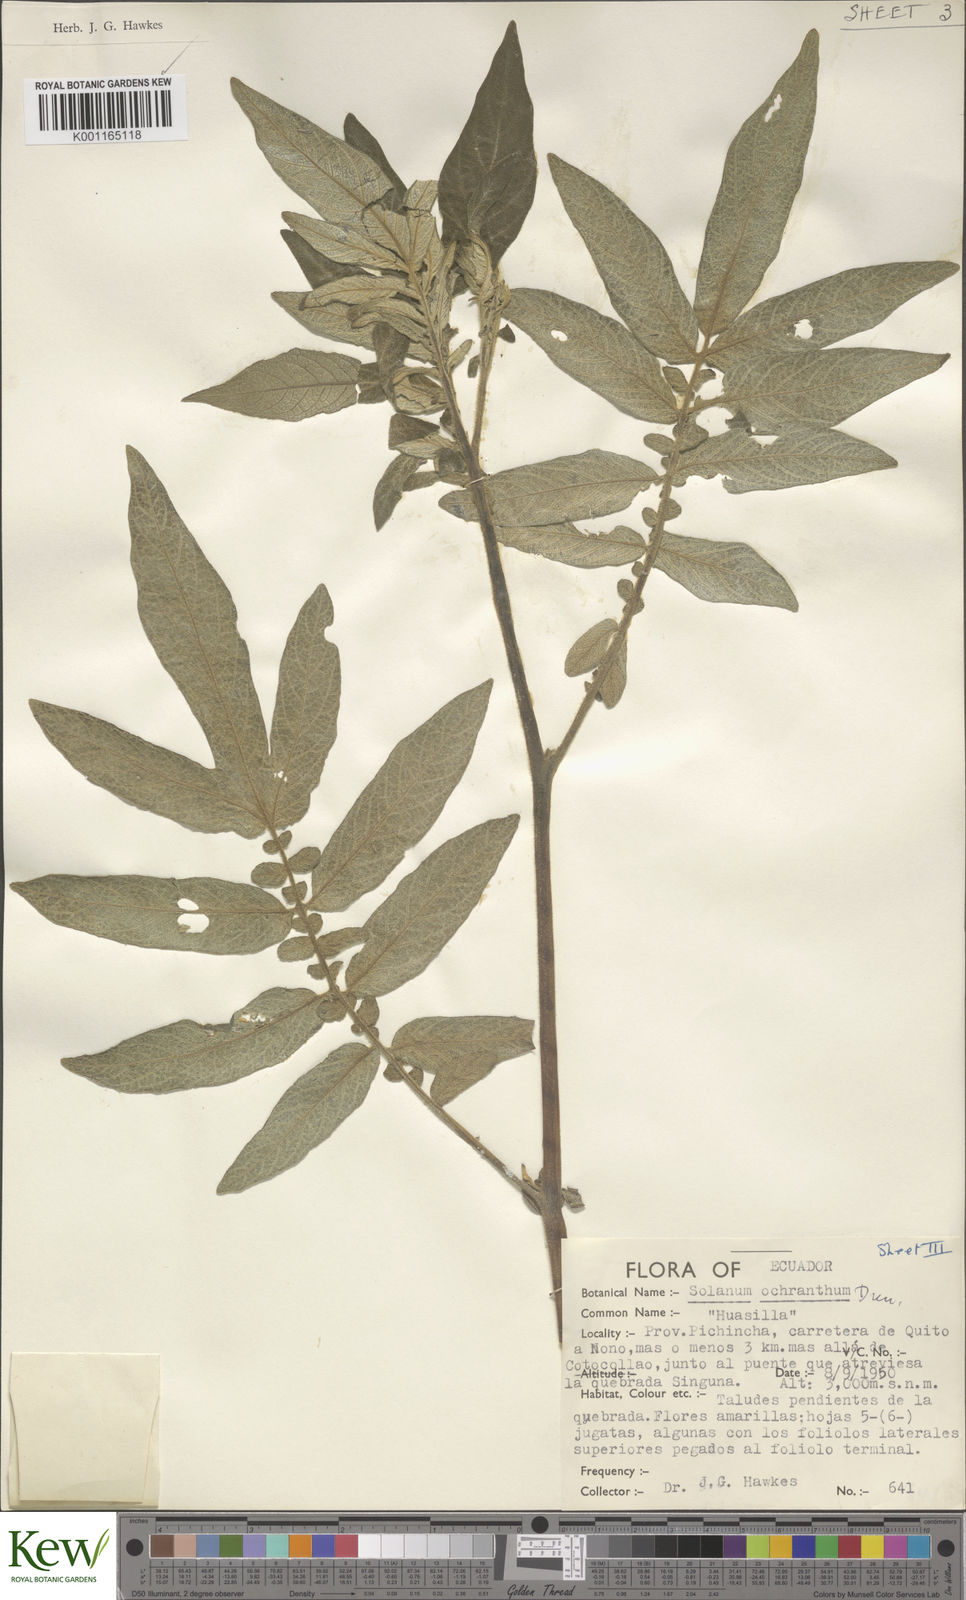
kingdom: Plantae
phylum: Tracheophyta
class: Magnoliopsida
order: Solanales
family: Solanaceae
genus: Solanum
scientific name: Solanum ochranthum
